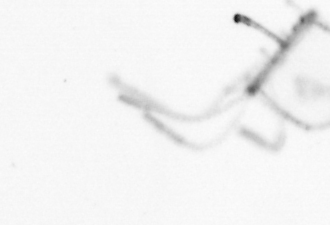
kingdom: Animalia
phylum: Cnidaria
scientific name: Cnidaria
